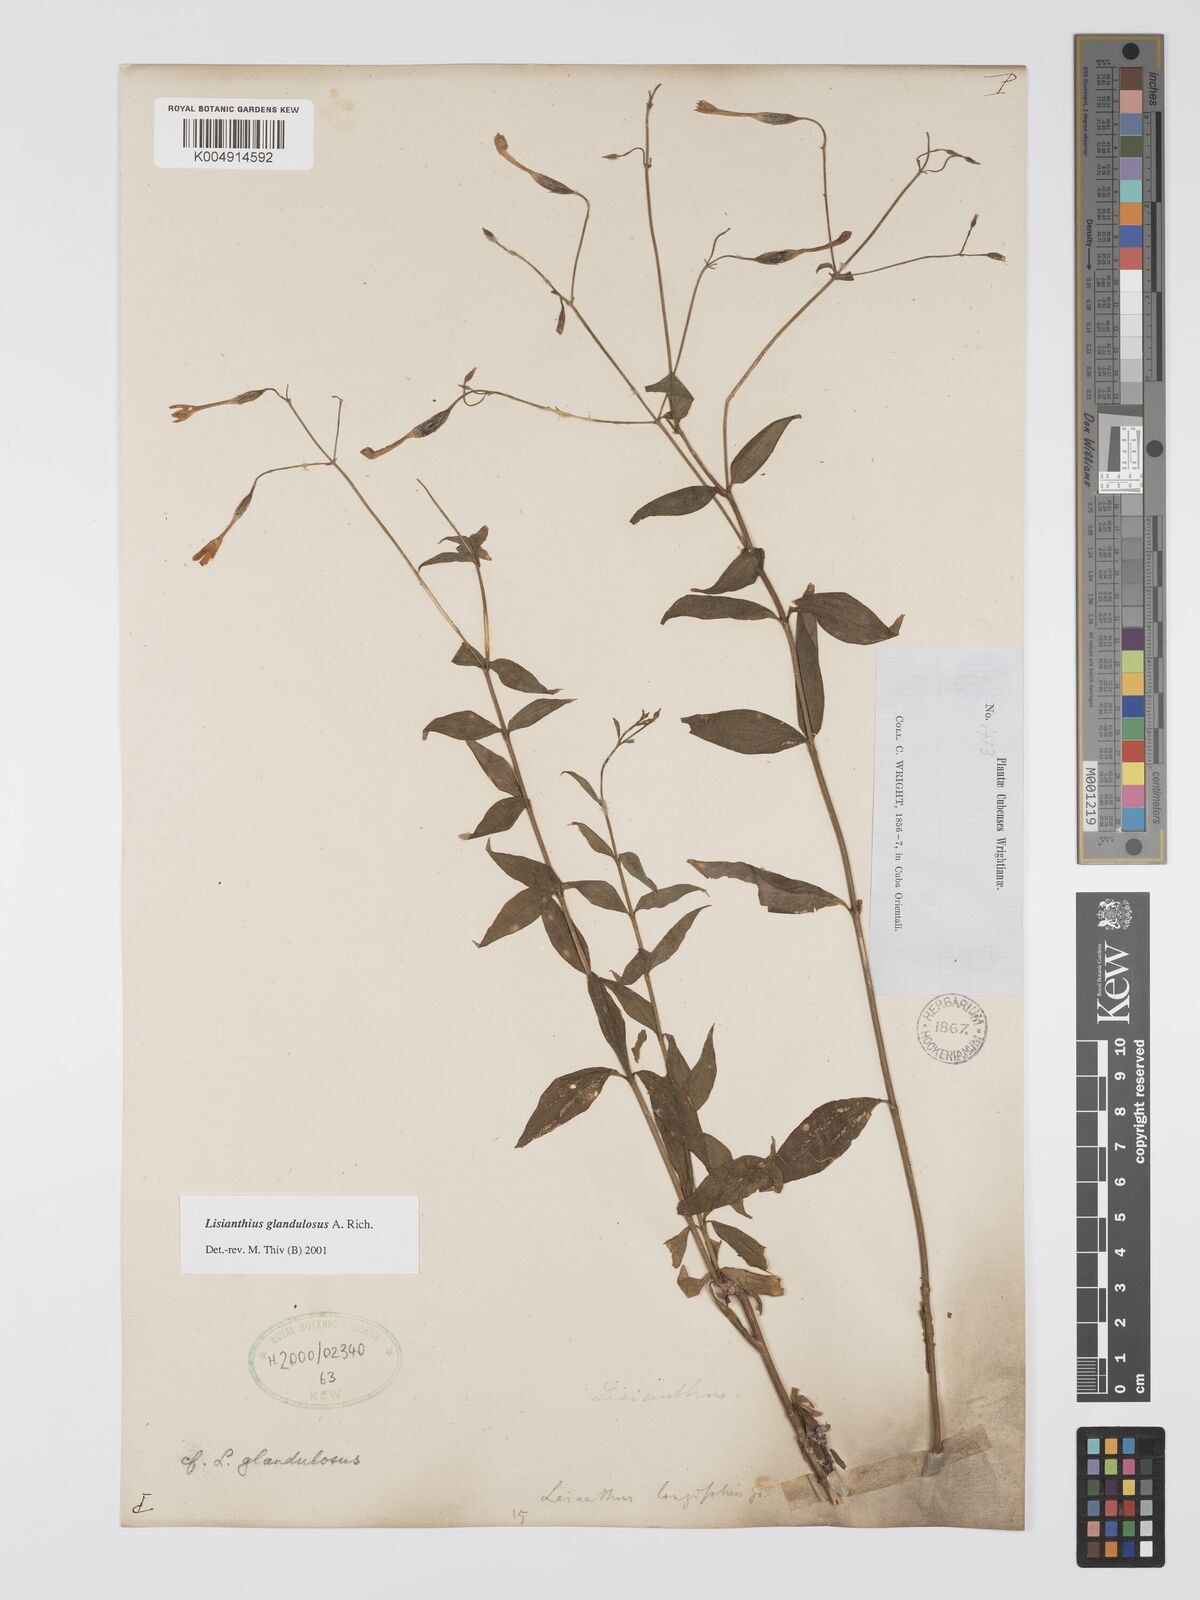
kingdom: Plantae
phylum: Tracheophyta
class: Magnoliopsida
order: Gentianales
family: Gentianaceae
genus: Lisianthus
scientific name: Lisianthus glandulosus
